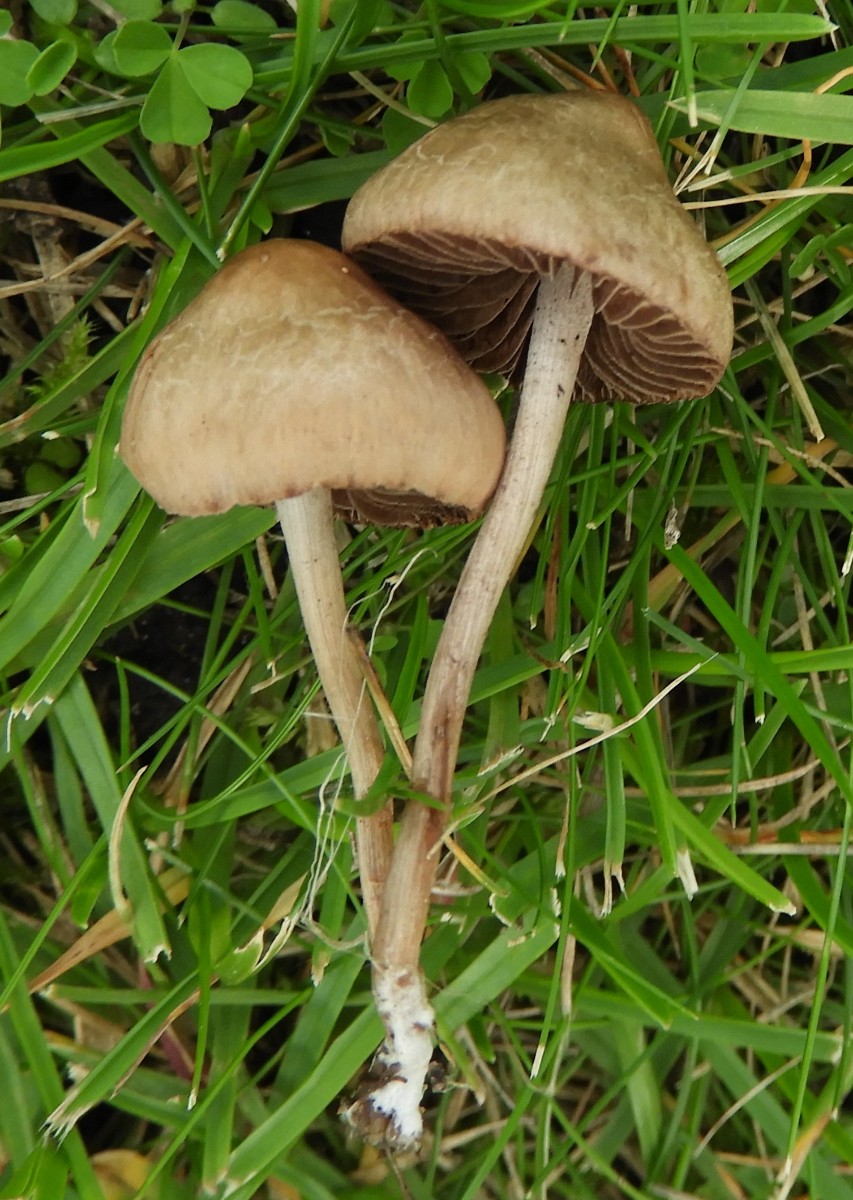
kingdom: Fungi
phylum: Basidiomycota
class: Agaricomycetes
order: Agaricales
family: Bolbitiaceae
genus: Panaeolina
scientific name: Panaeolina foenisecii
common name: høslætsvamp
